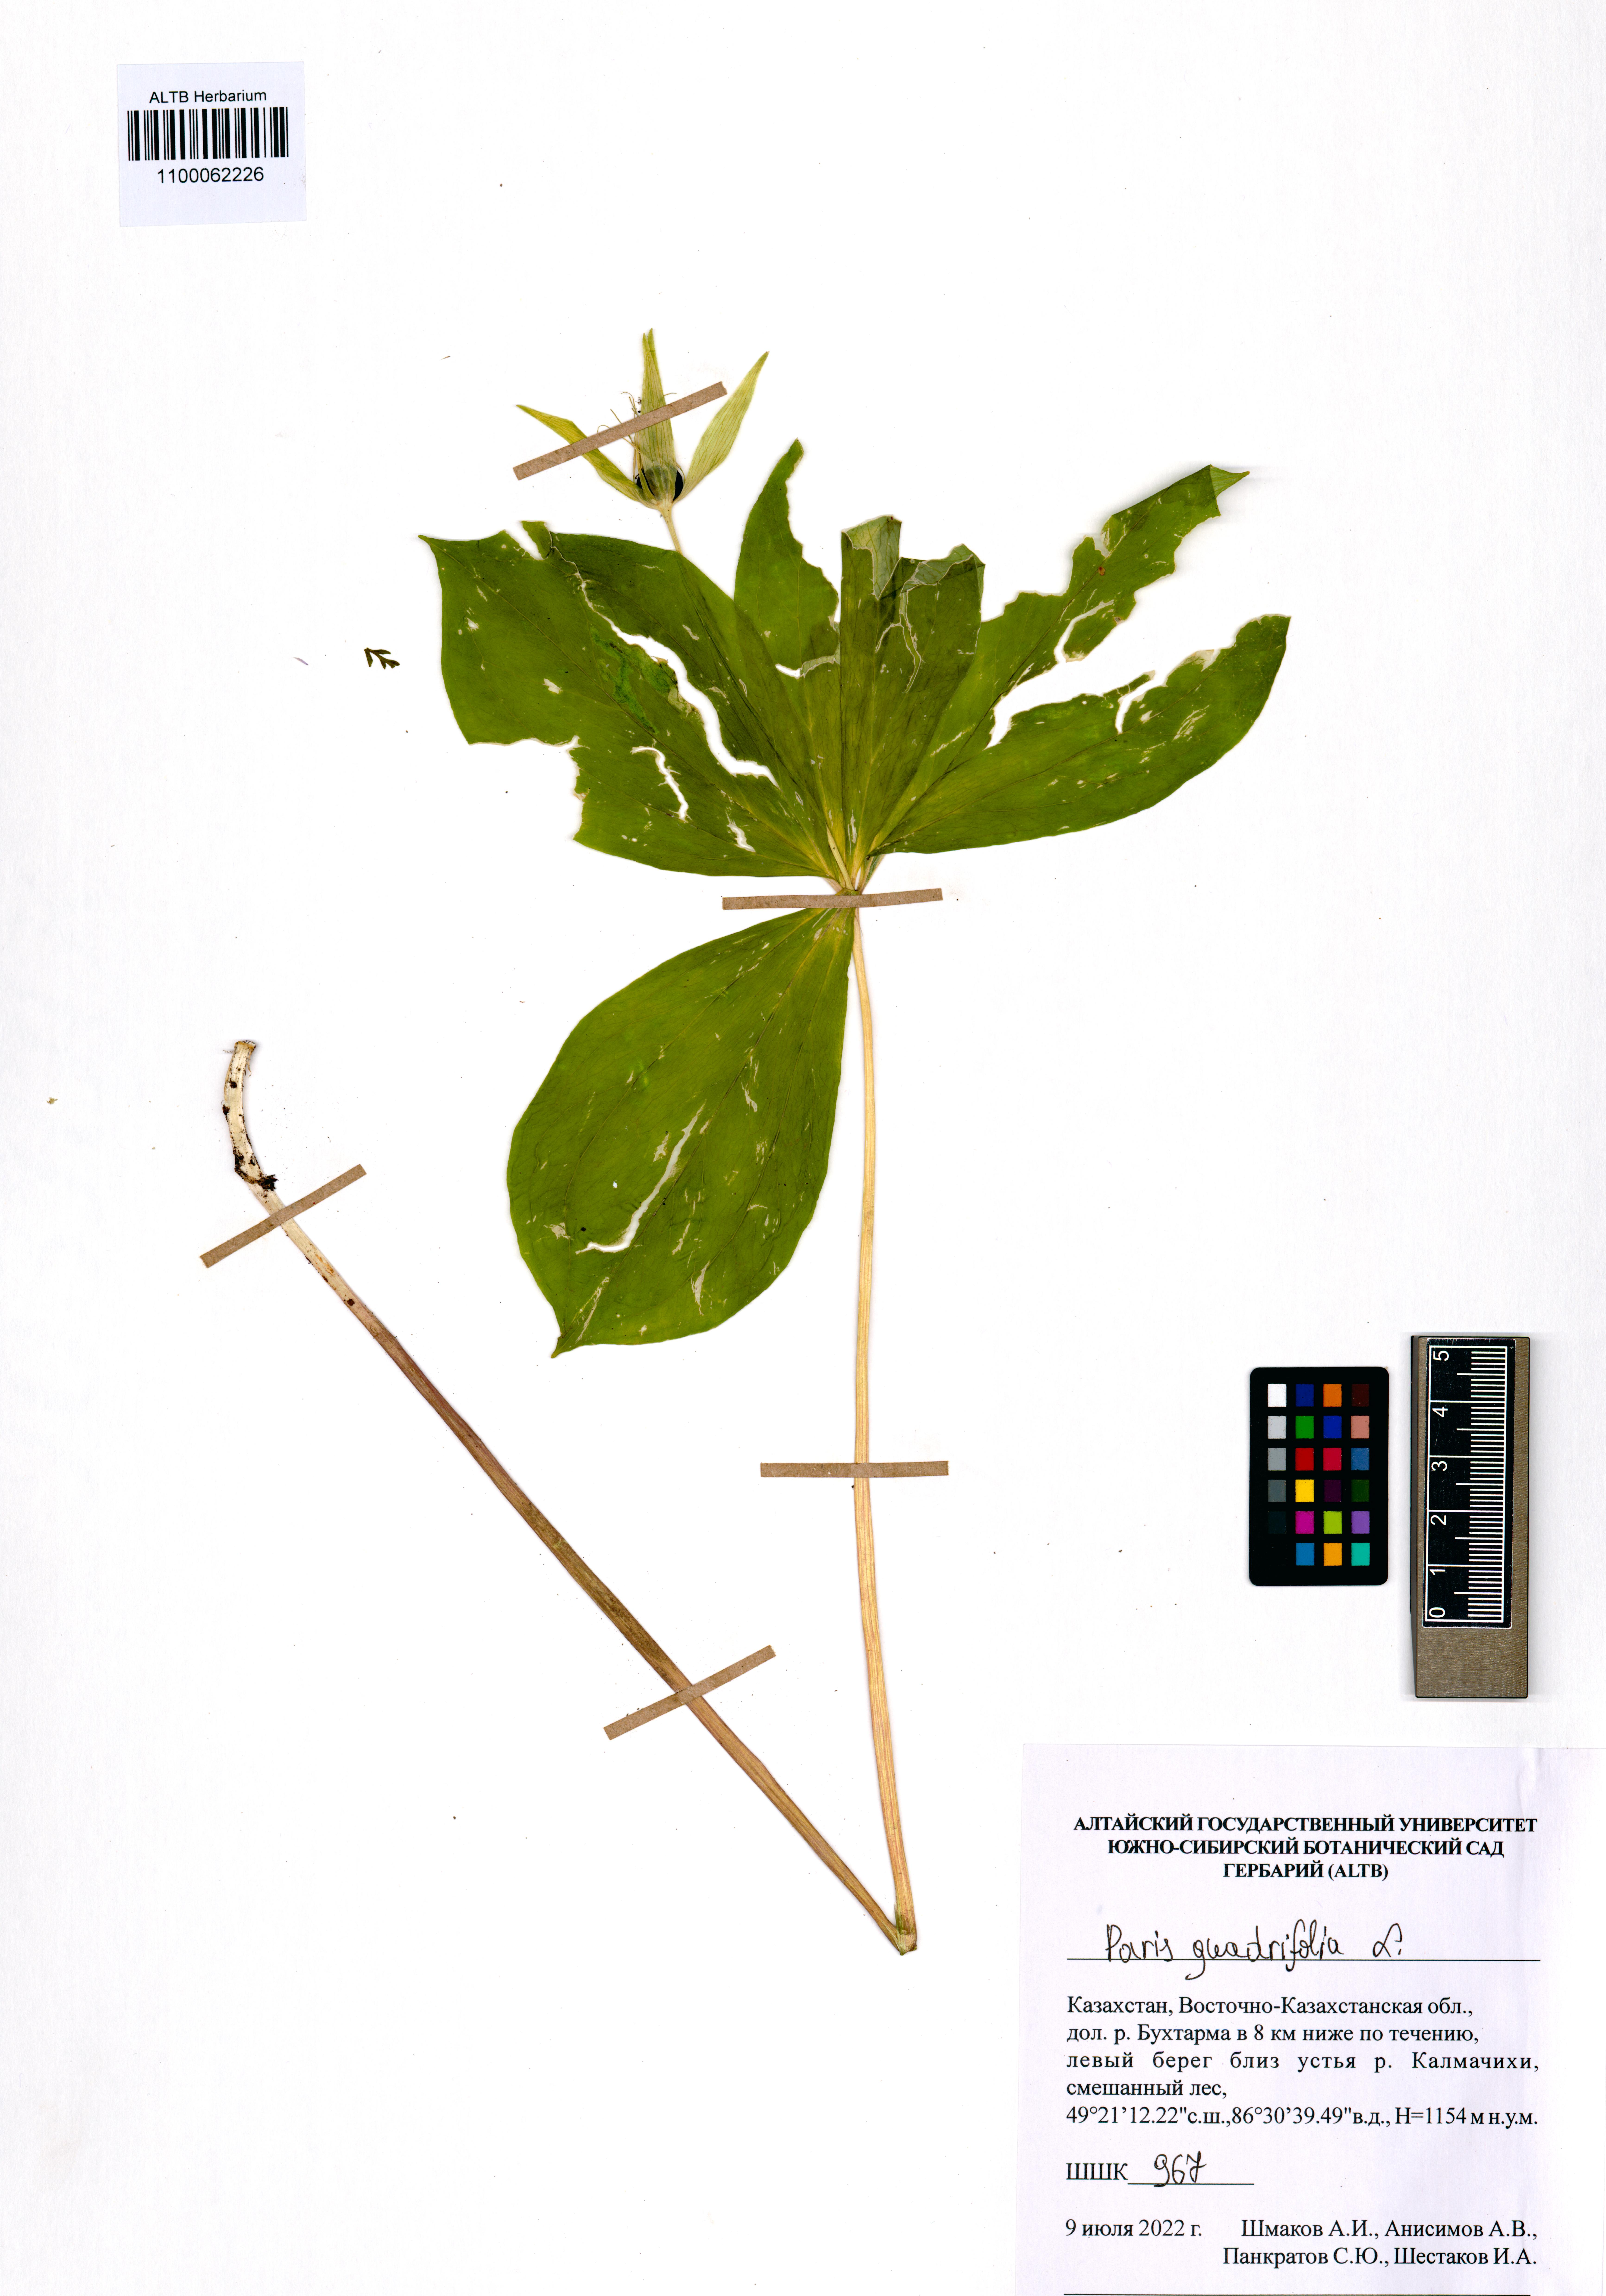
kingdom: Plantae
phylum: Tracheophyta
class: Liliopsida
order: Liliales
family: Melanthiaceae
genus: Paris
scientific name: Paris quadrifolia
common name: Herb-paris
